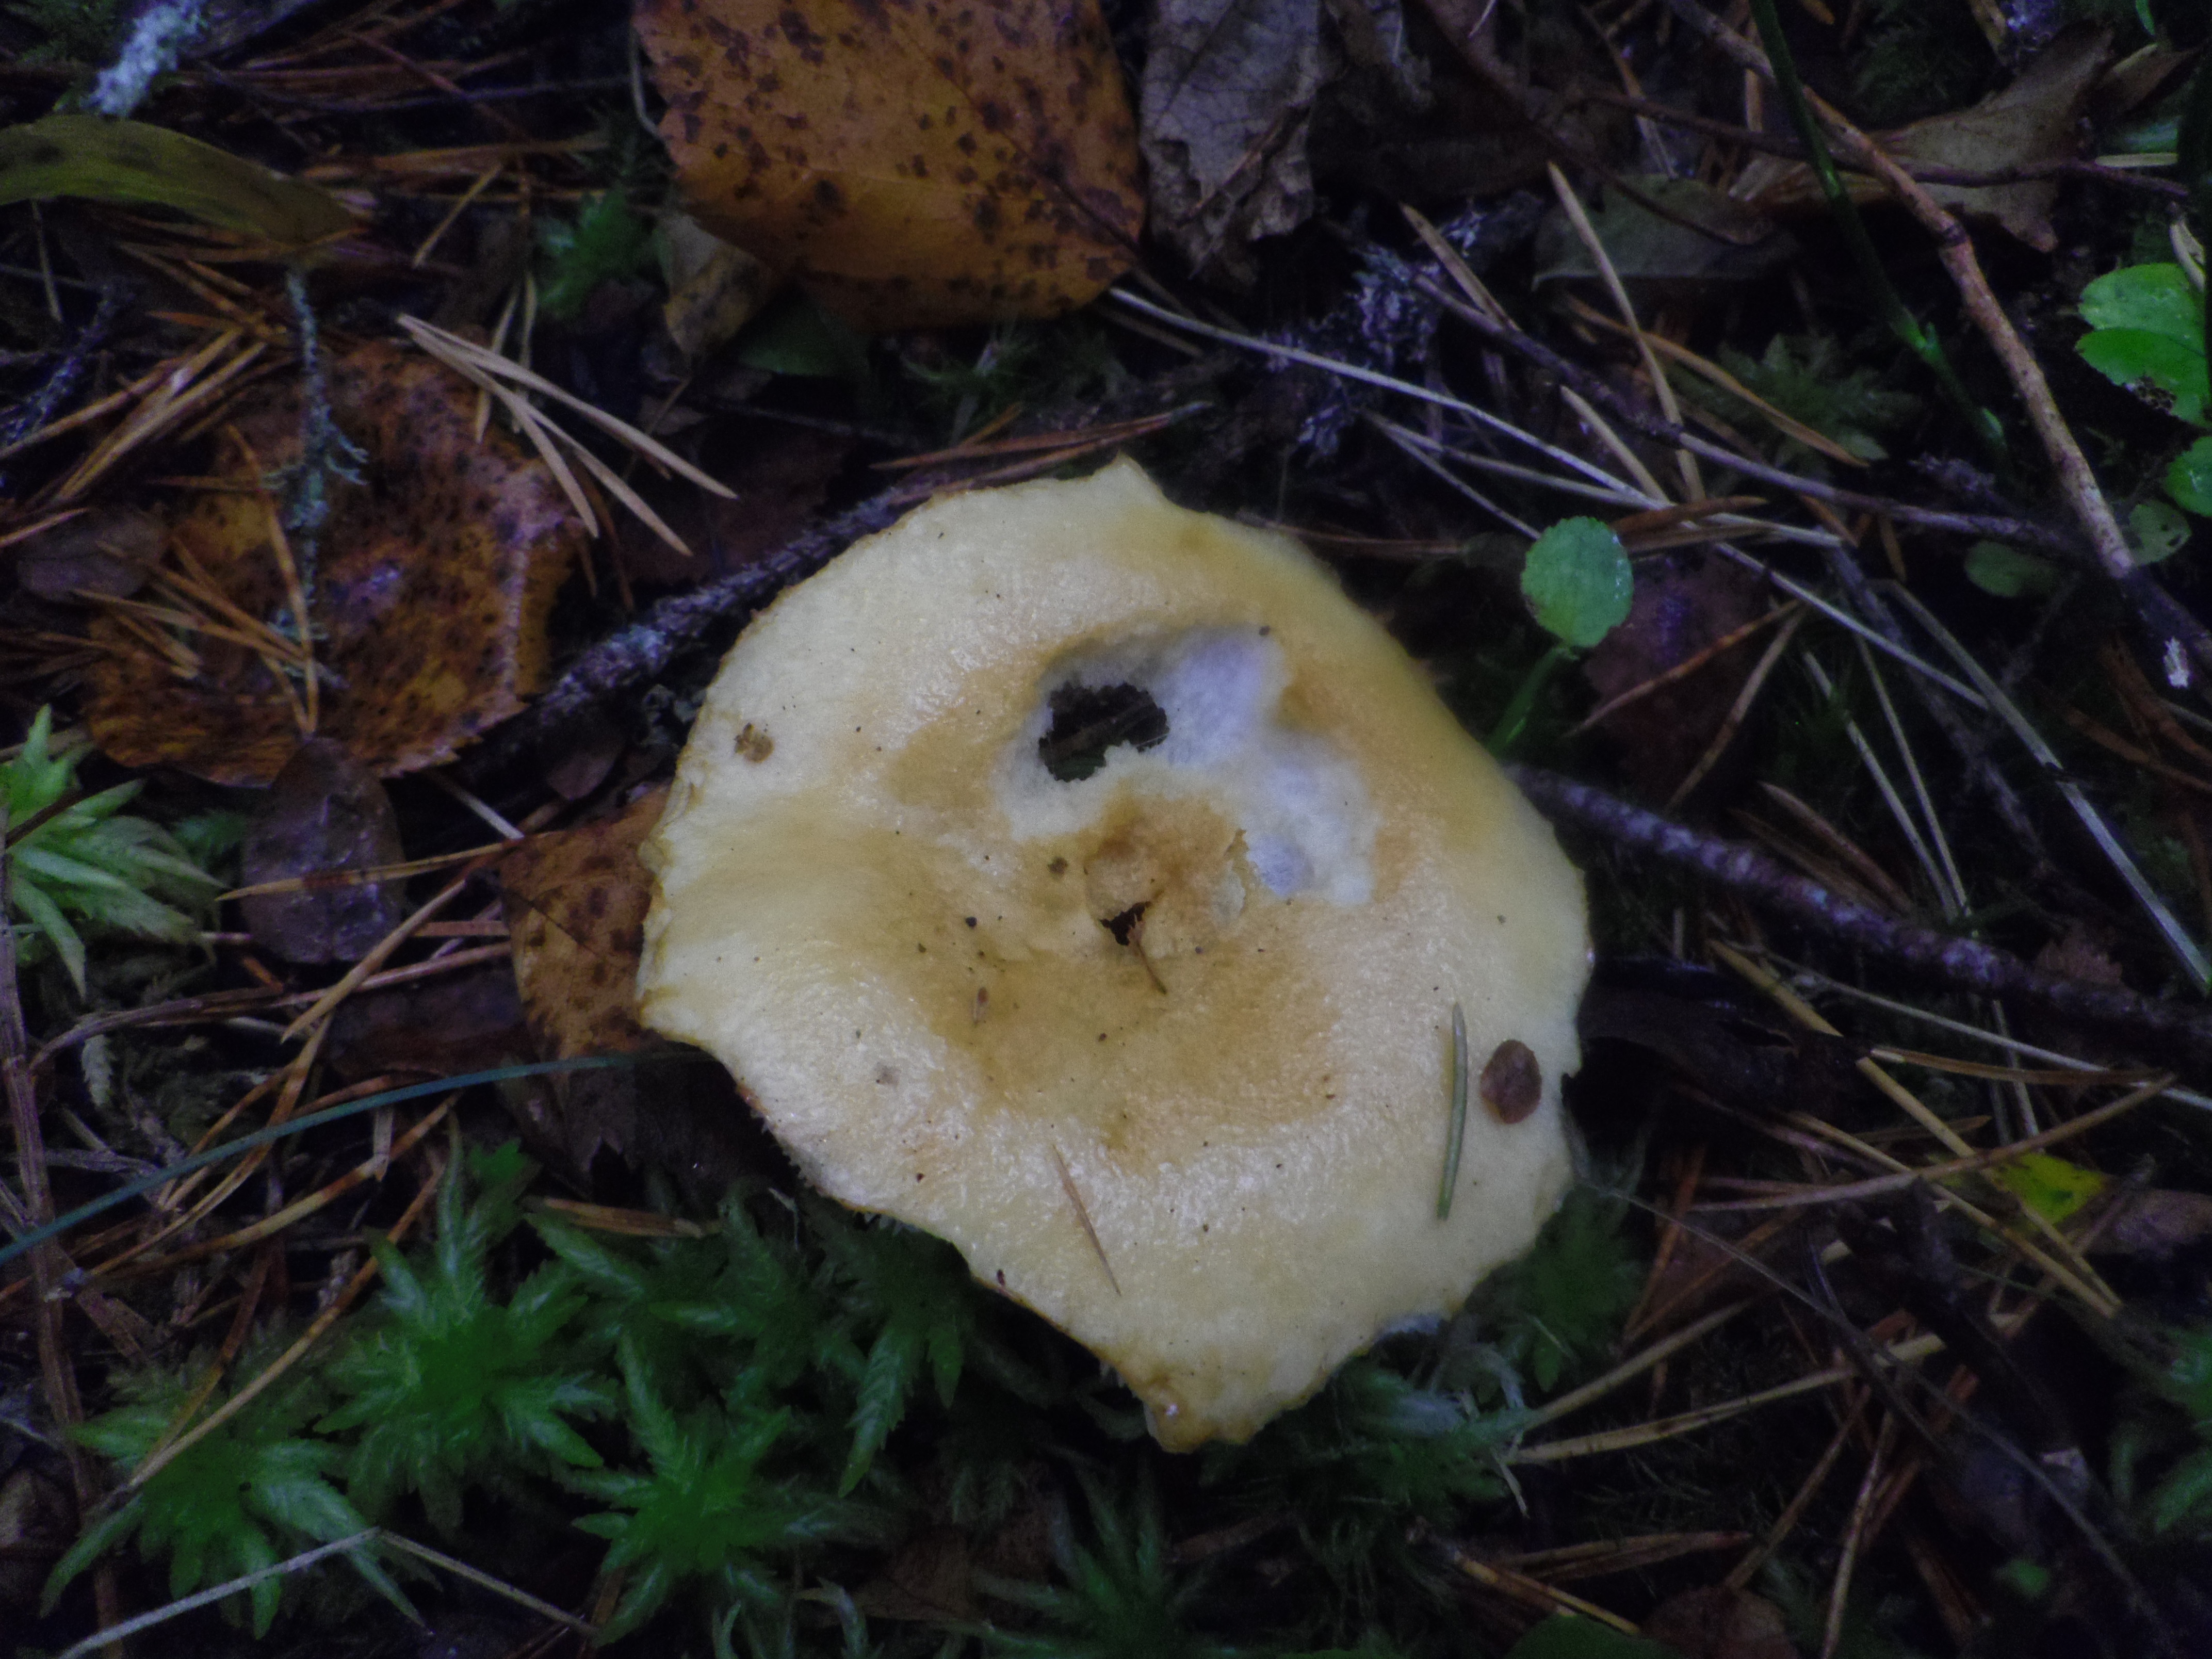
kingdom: Fungi
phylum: Basidiomycota
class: Agaricomycetes
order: Russulales
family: Russulaceae
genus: Lactarius
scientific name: Lactarius tuomikoskii
